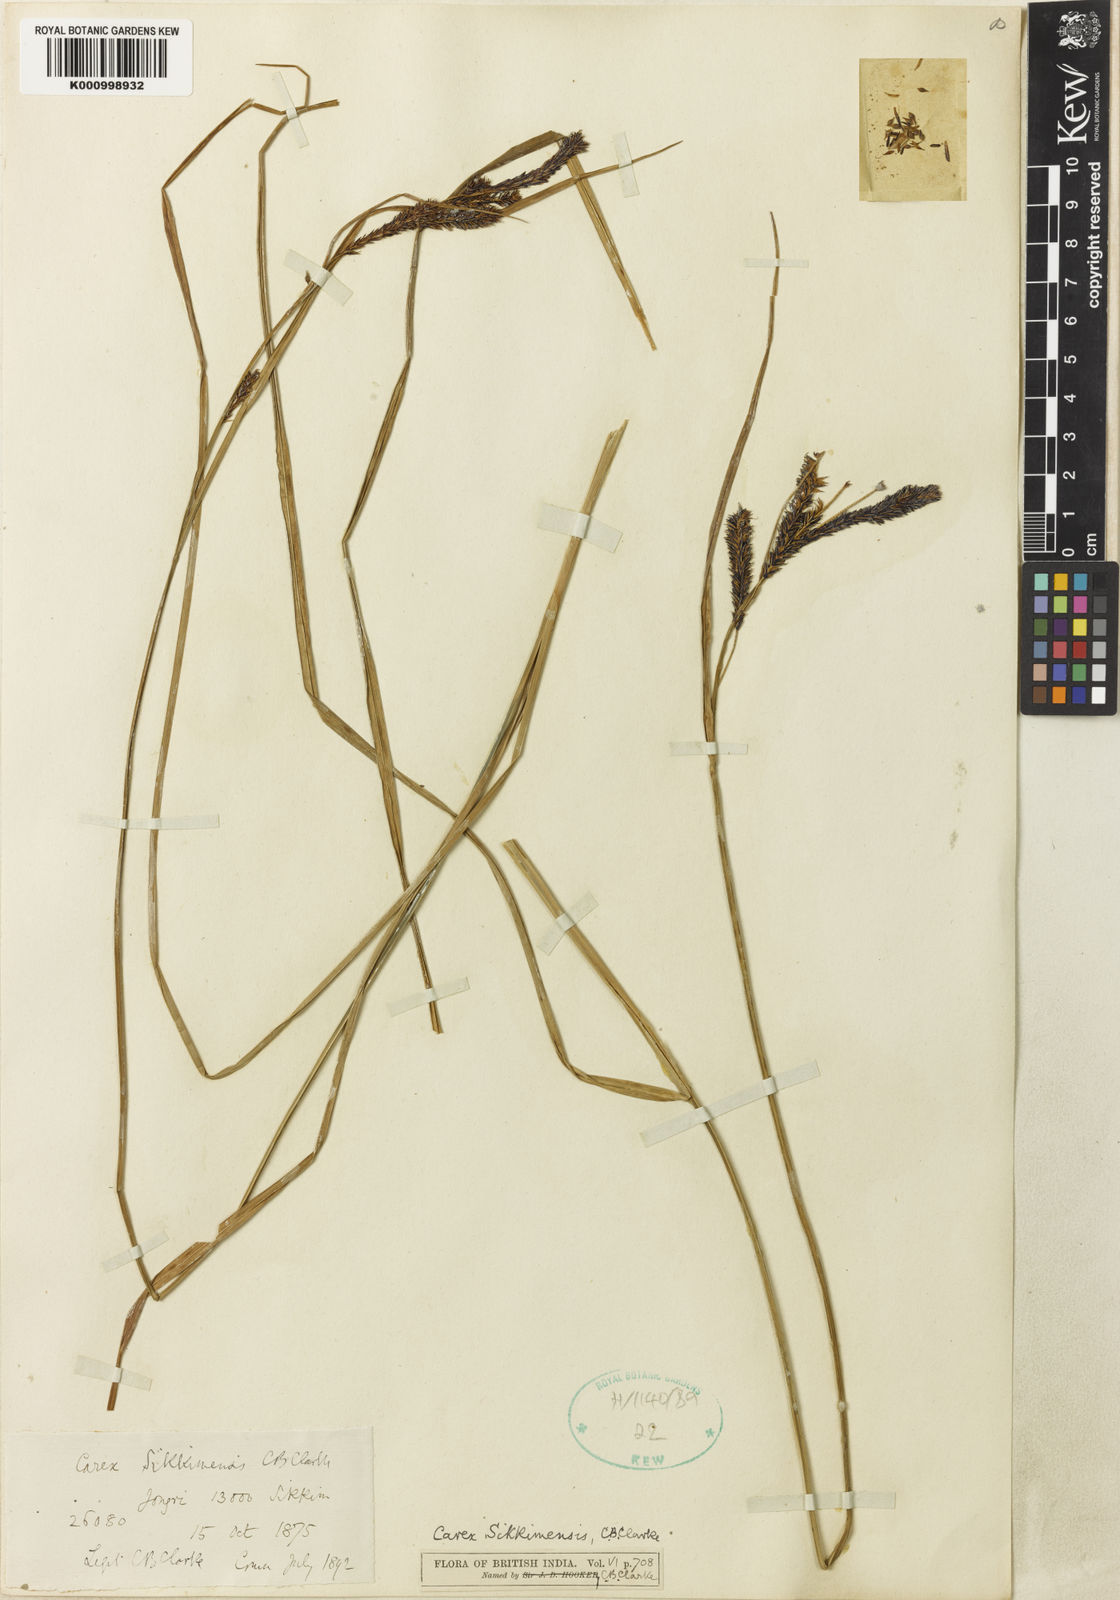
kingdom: Plantae
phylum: Tracheophyta
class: Liliopsida
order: Poales
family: Cyperaceae
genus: Carex
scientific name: Carex fucata
